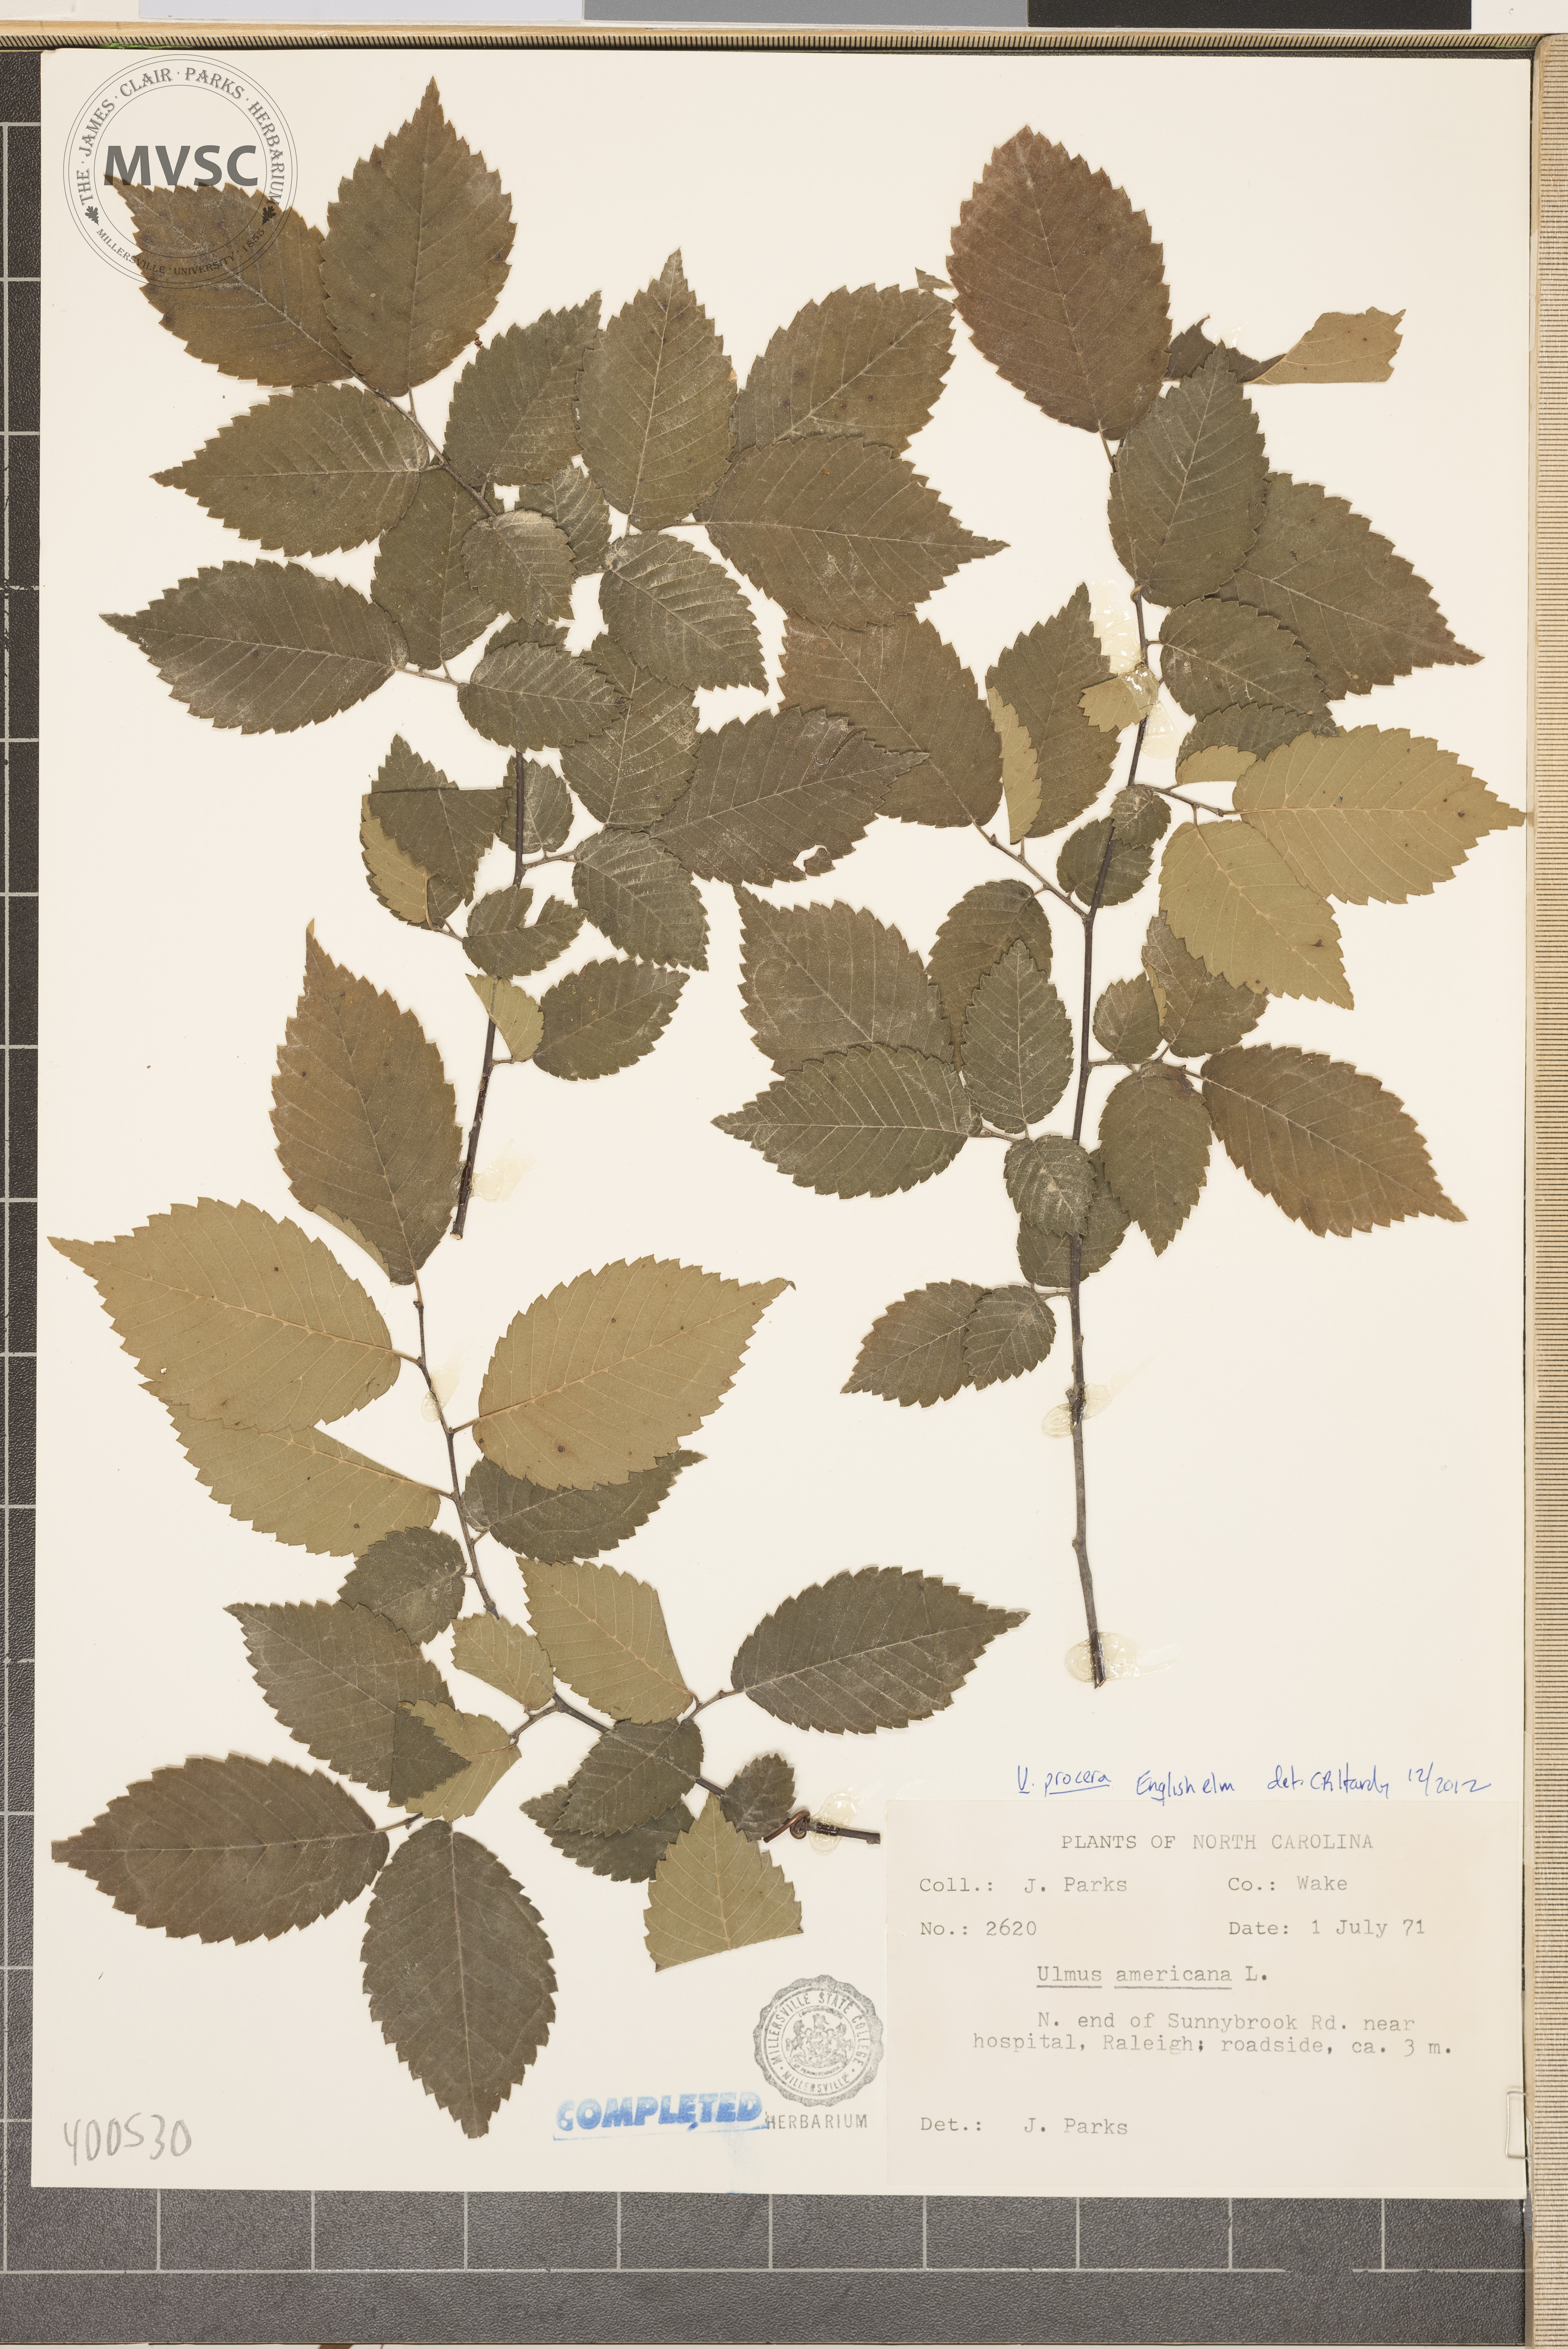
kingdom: Plantae
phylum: Tracheophyta
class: Magnoliopsida
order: Rosales
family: Ulmaceae
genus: Ulmus
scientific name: Ulmus procera
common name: American elm
